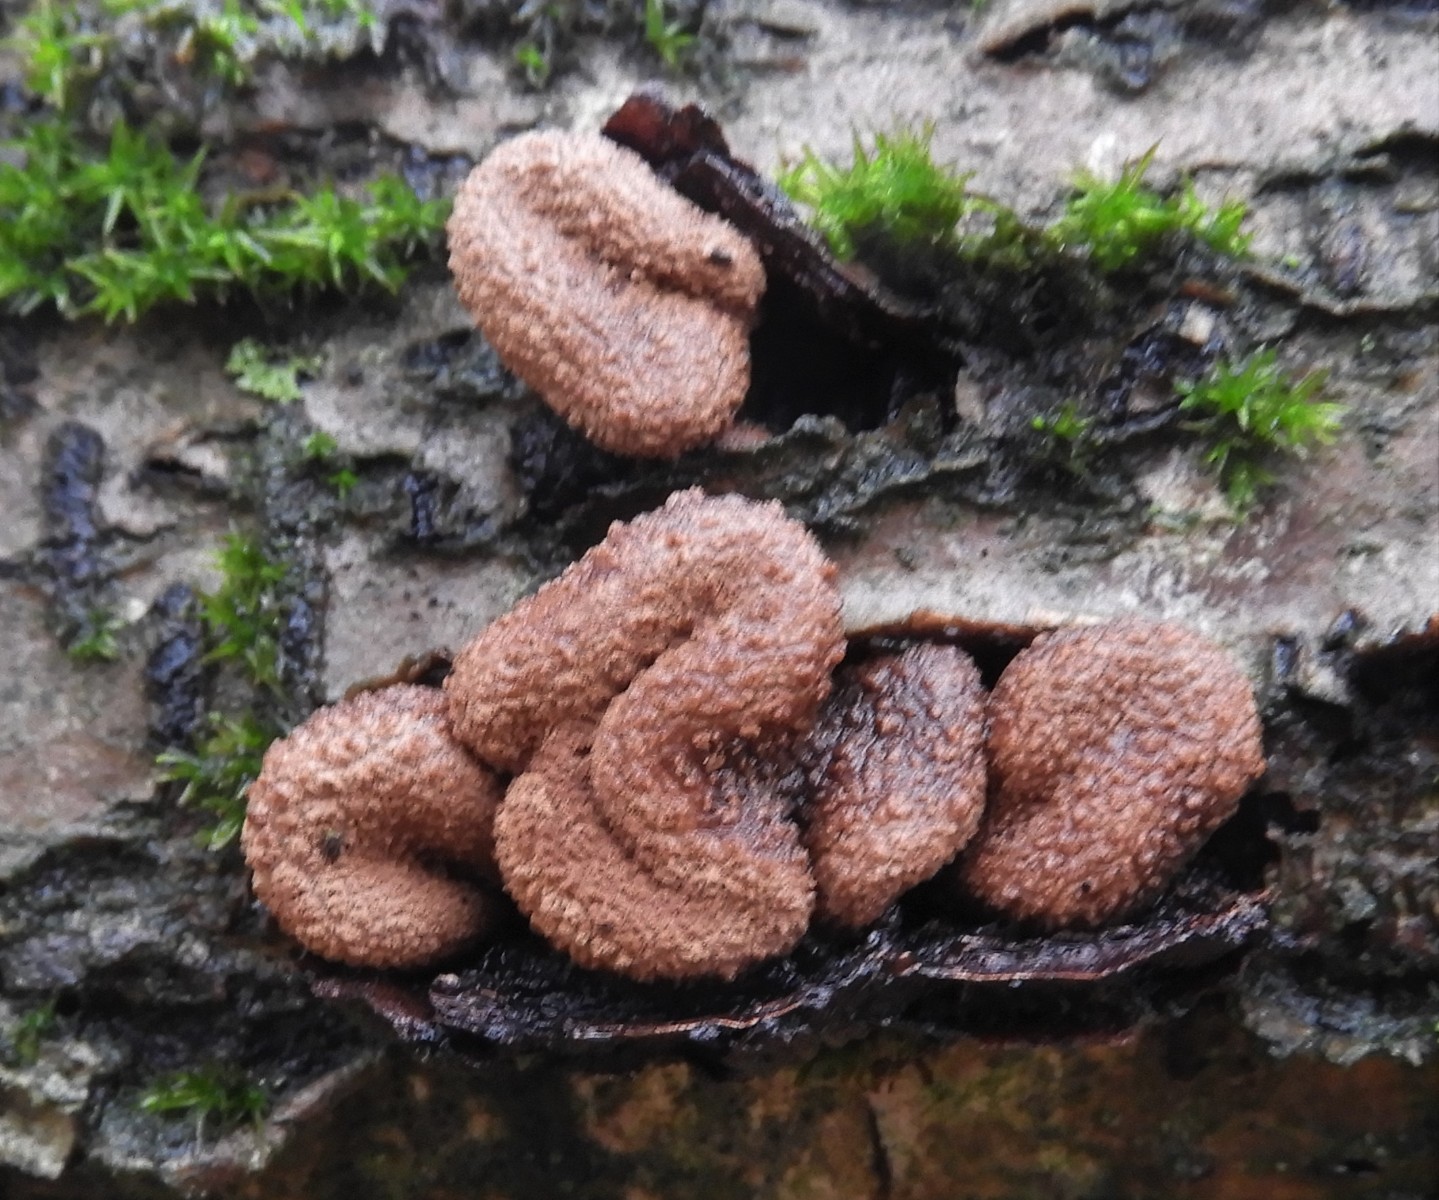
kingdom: Fungi
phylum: Ascomycota
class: Leotiomycetes
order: Helotiales
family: Cenangiaceae
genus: Encoelia
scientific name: Encoelia furfuracea
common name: hassel-læderskive
